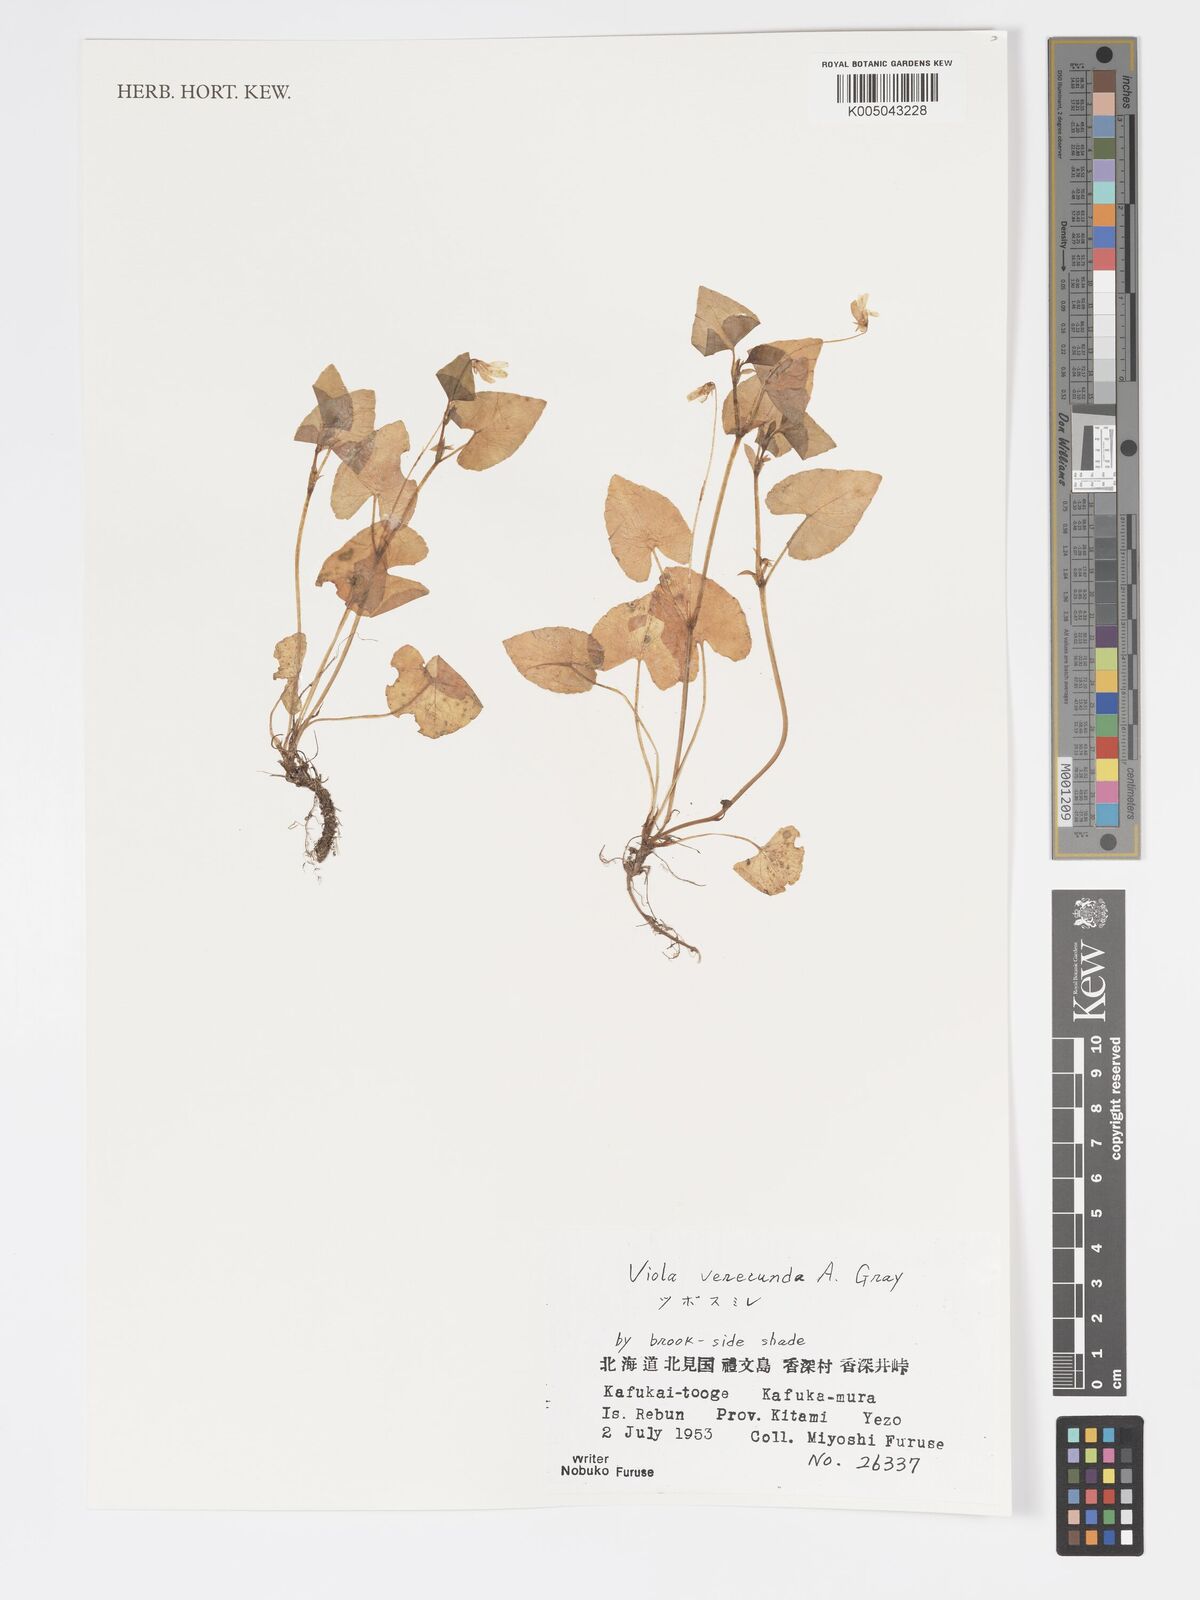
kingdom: Plantae
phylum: Tracheophyta
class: Magnoliopsida
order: Malpighiales
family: Violaceae
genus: Viola
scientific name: Viola hamiltoniana
